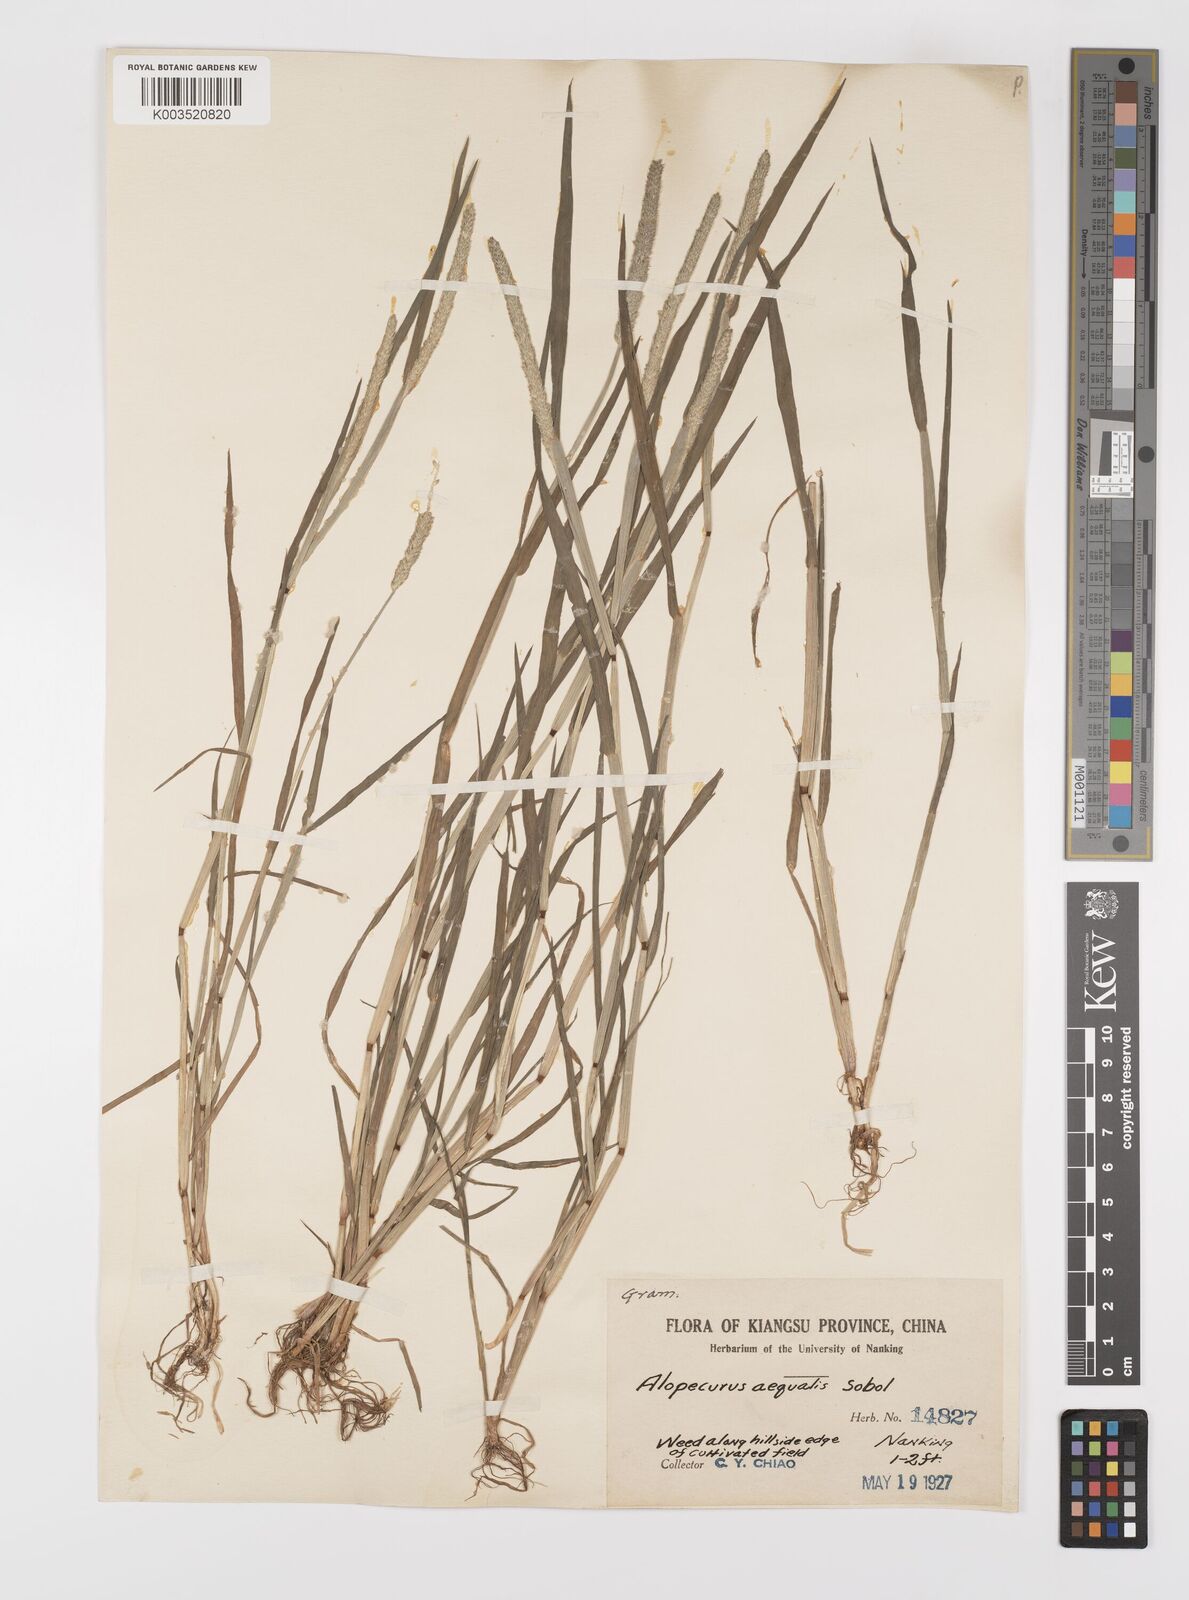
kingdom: Plantae
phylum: Tracheophyta
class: Liliopsida
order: Poales
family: Poaceae
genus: Alopecurus
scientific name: Alopecurus aequalis
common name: Orange foxtail
